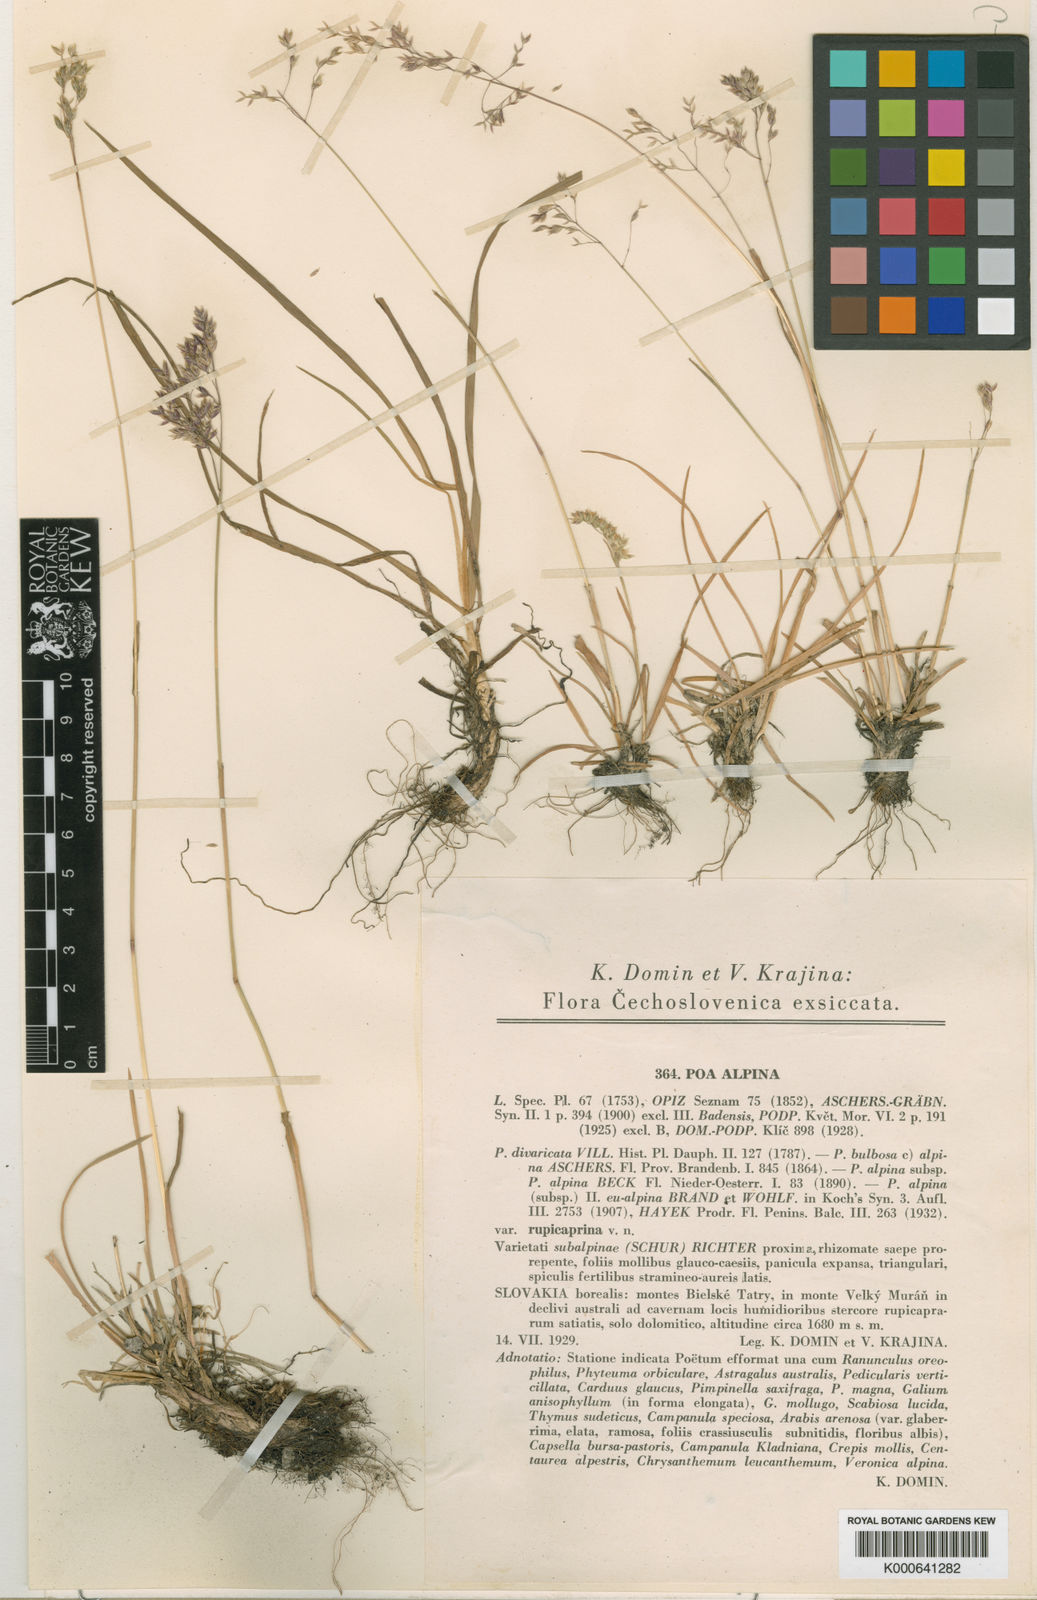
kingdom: Plantae
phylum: Tracheophyta
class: Liliopsida
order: Poales
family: Poaceae
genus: Poa
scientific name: Poa alpina
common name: Alpine bluegrass
